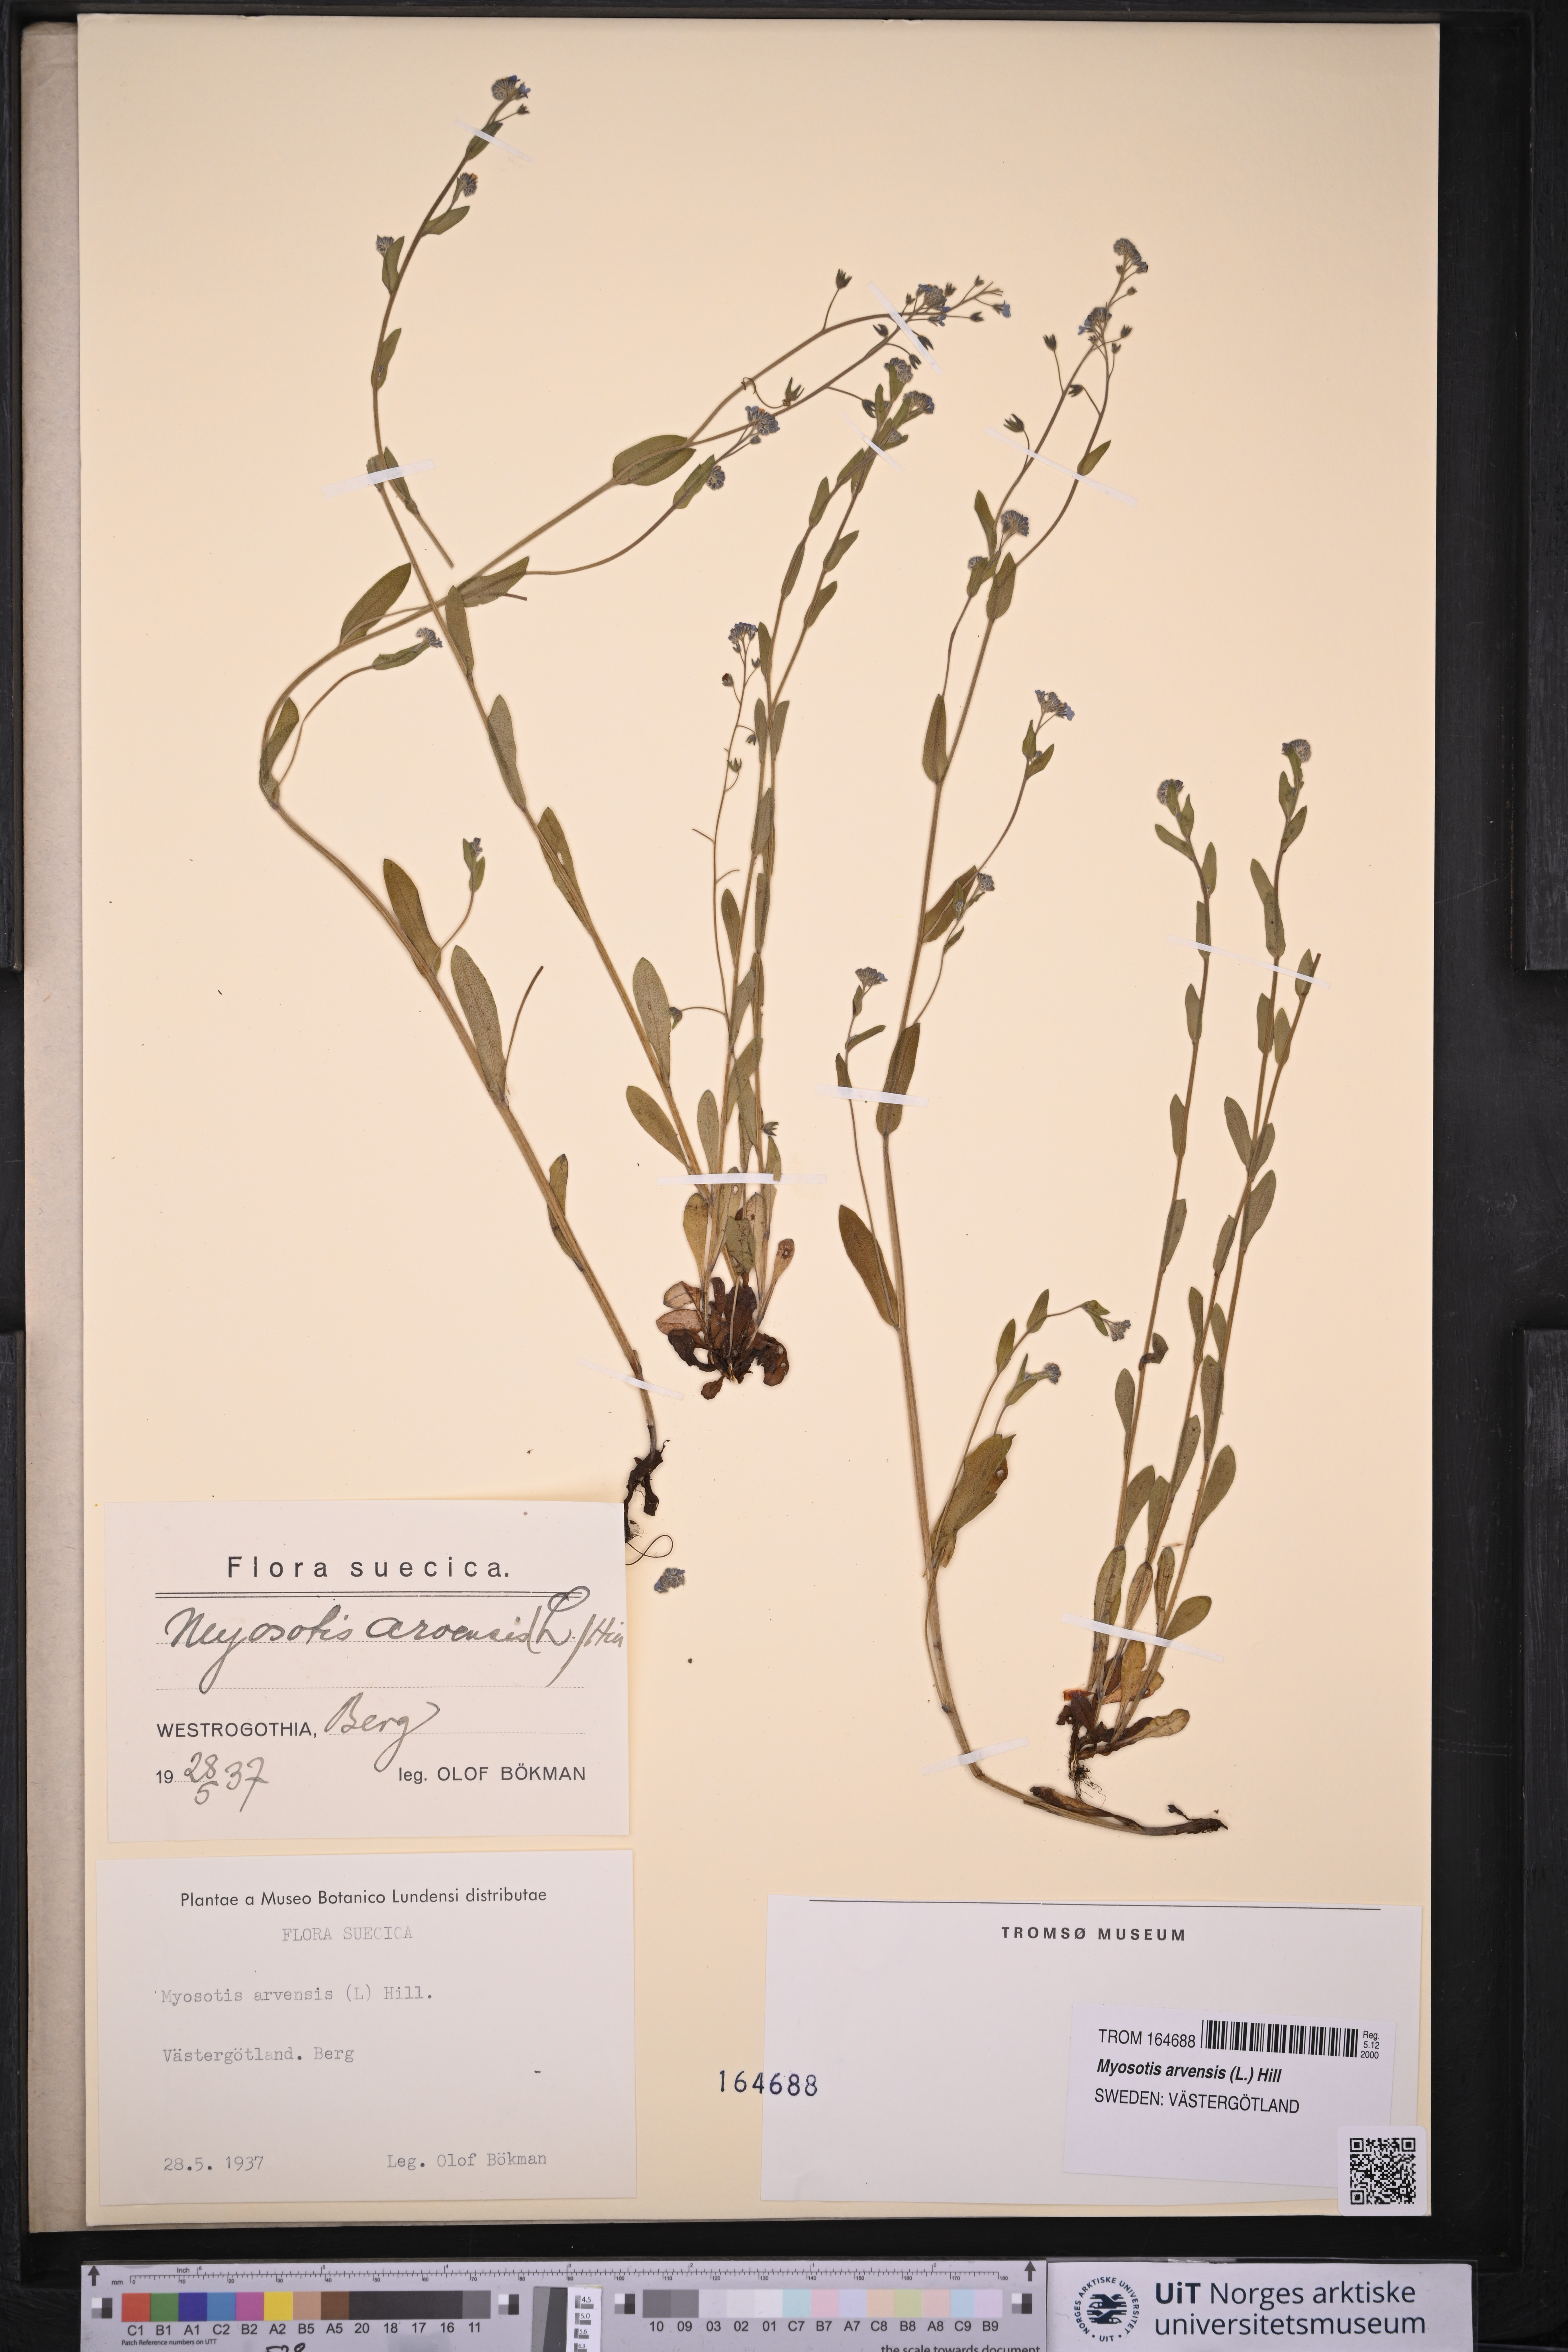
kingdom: Plantae
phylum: Tracheophyta
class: Magnoliopsida
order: Boraginales
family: Boraginaceae
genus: Myosotis
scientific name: Myosotis arvensis
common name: Field forget-me-not
